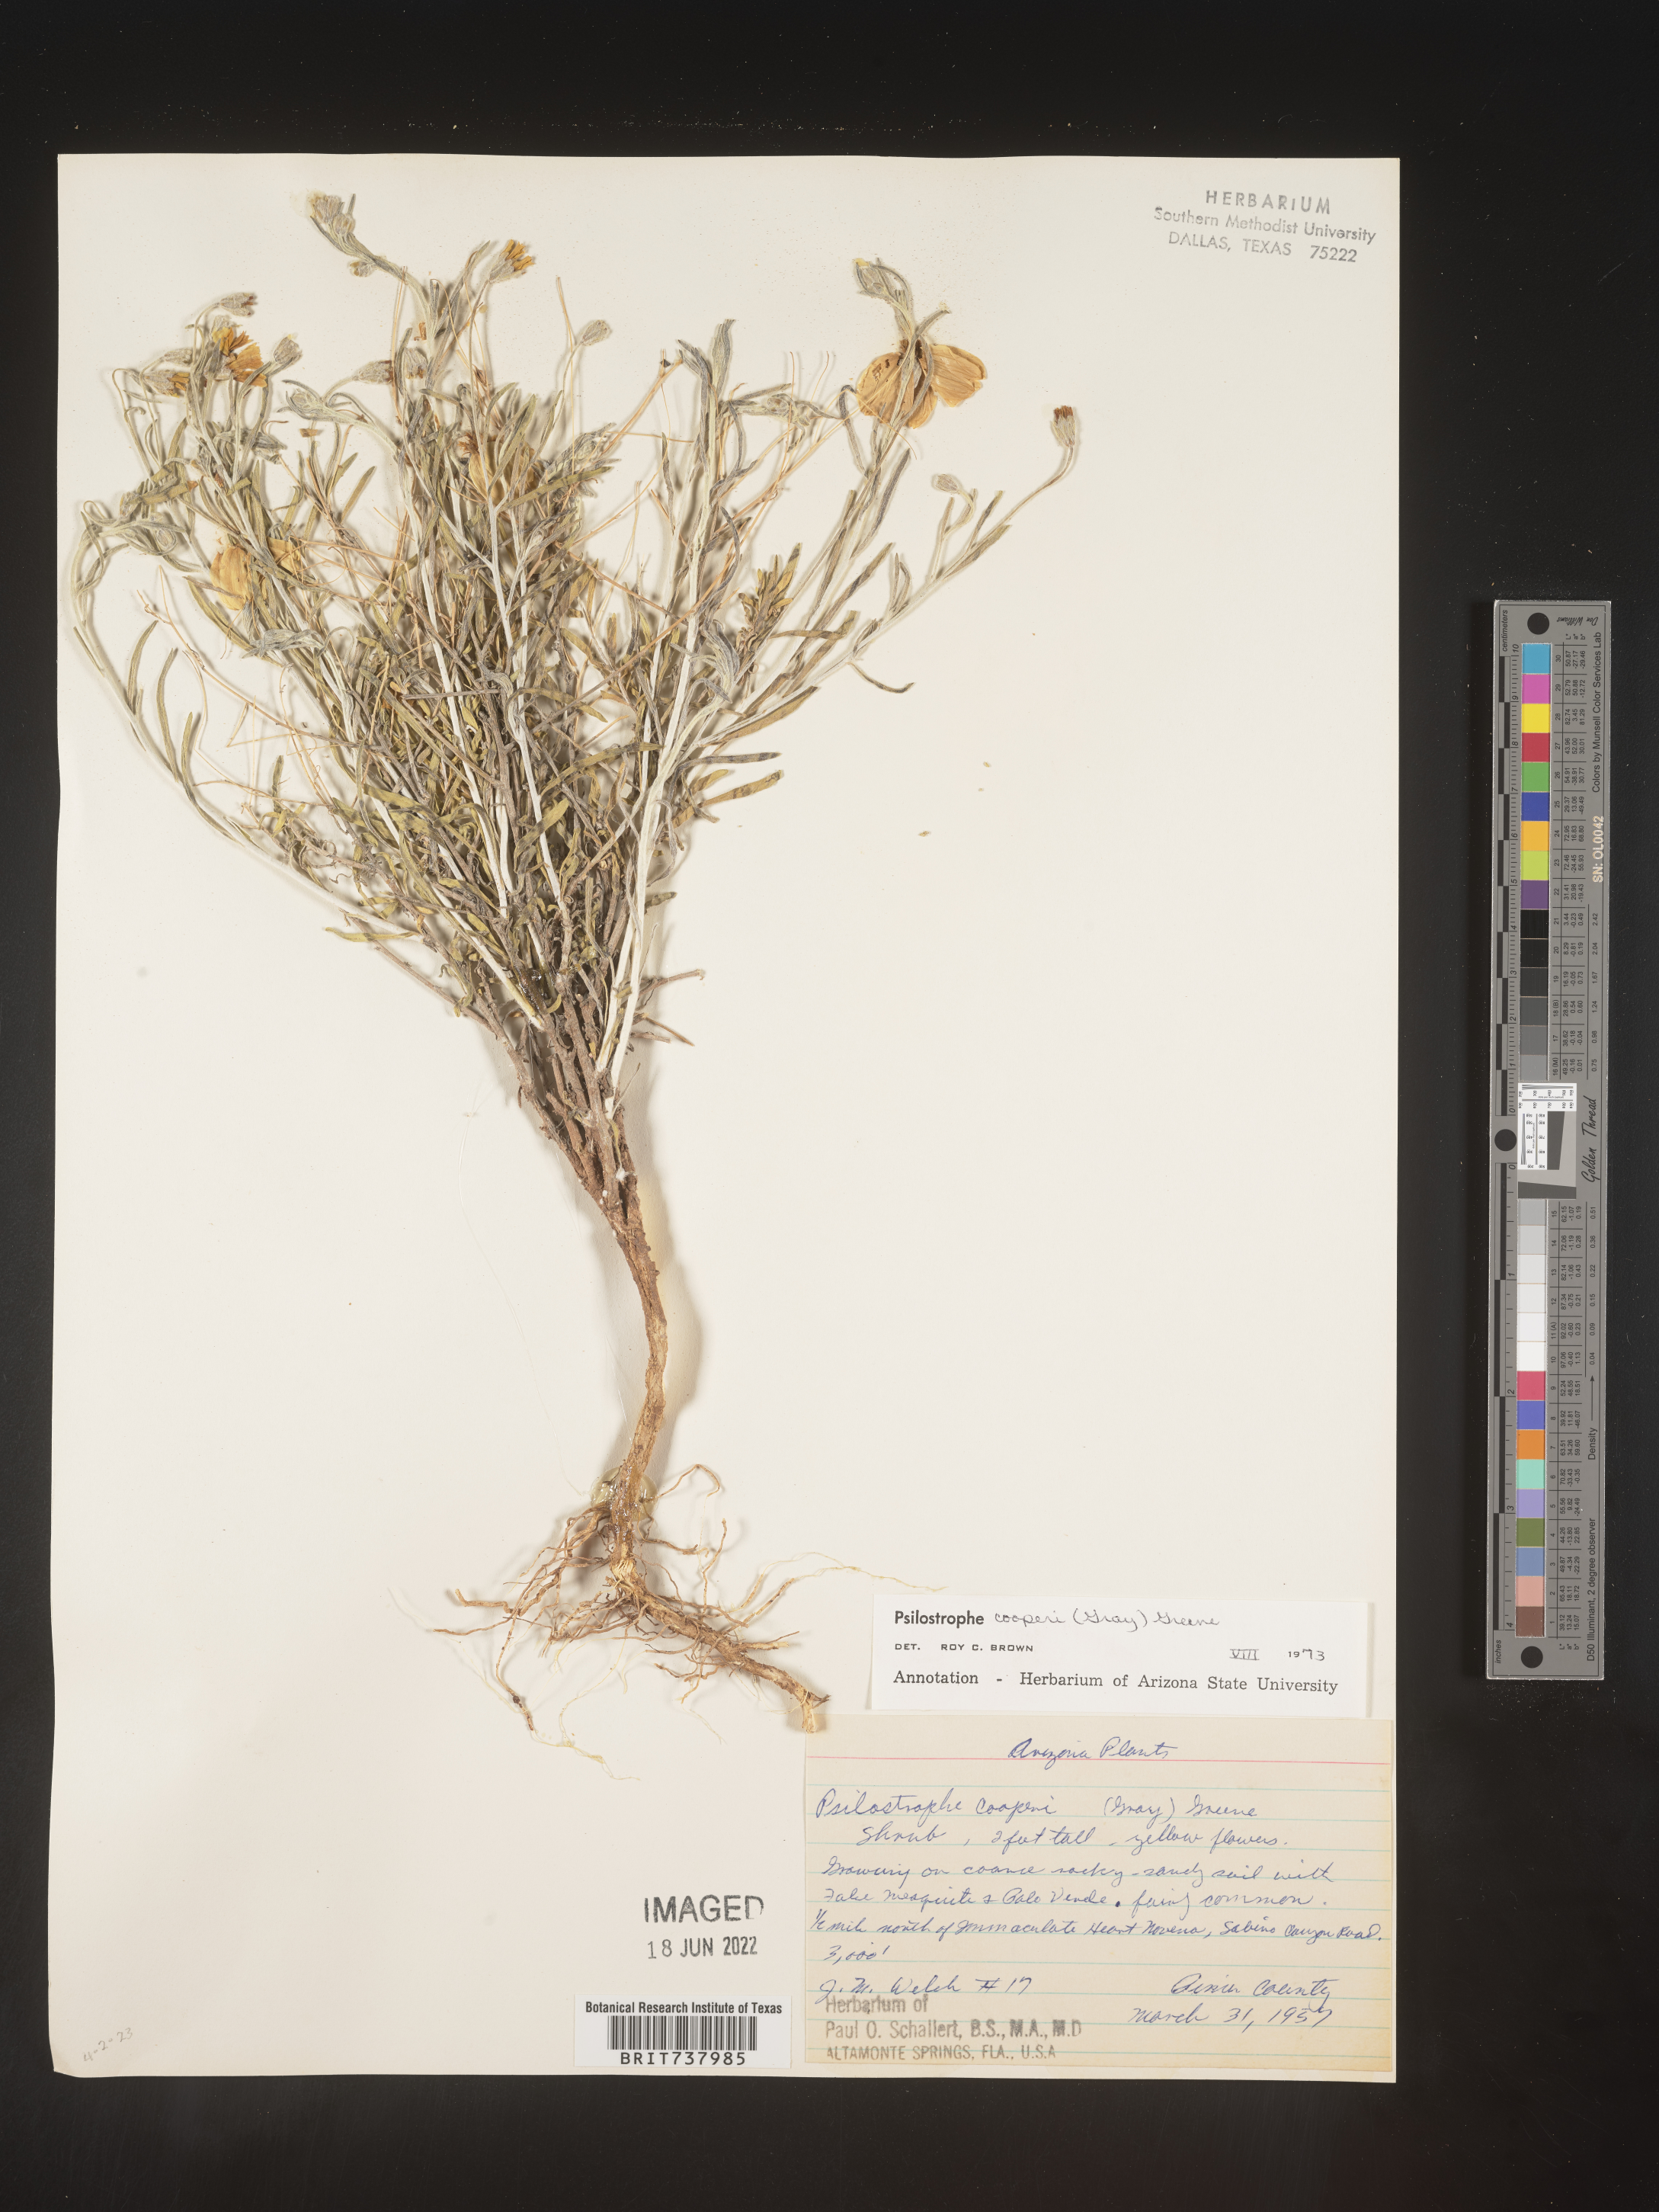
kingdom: Plantae
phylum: Tracheophyta
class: Magnoliopsida
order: Asterales
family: Asteraceae
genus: Psilostrophe
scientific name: Psilostrophe
